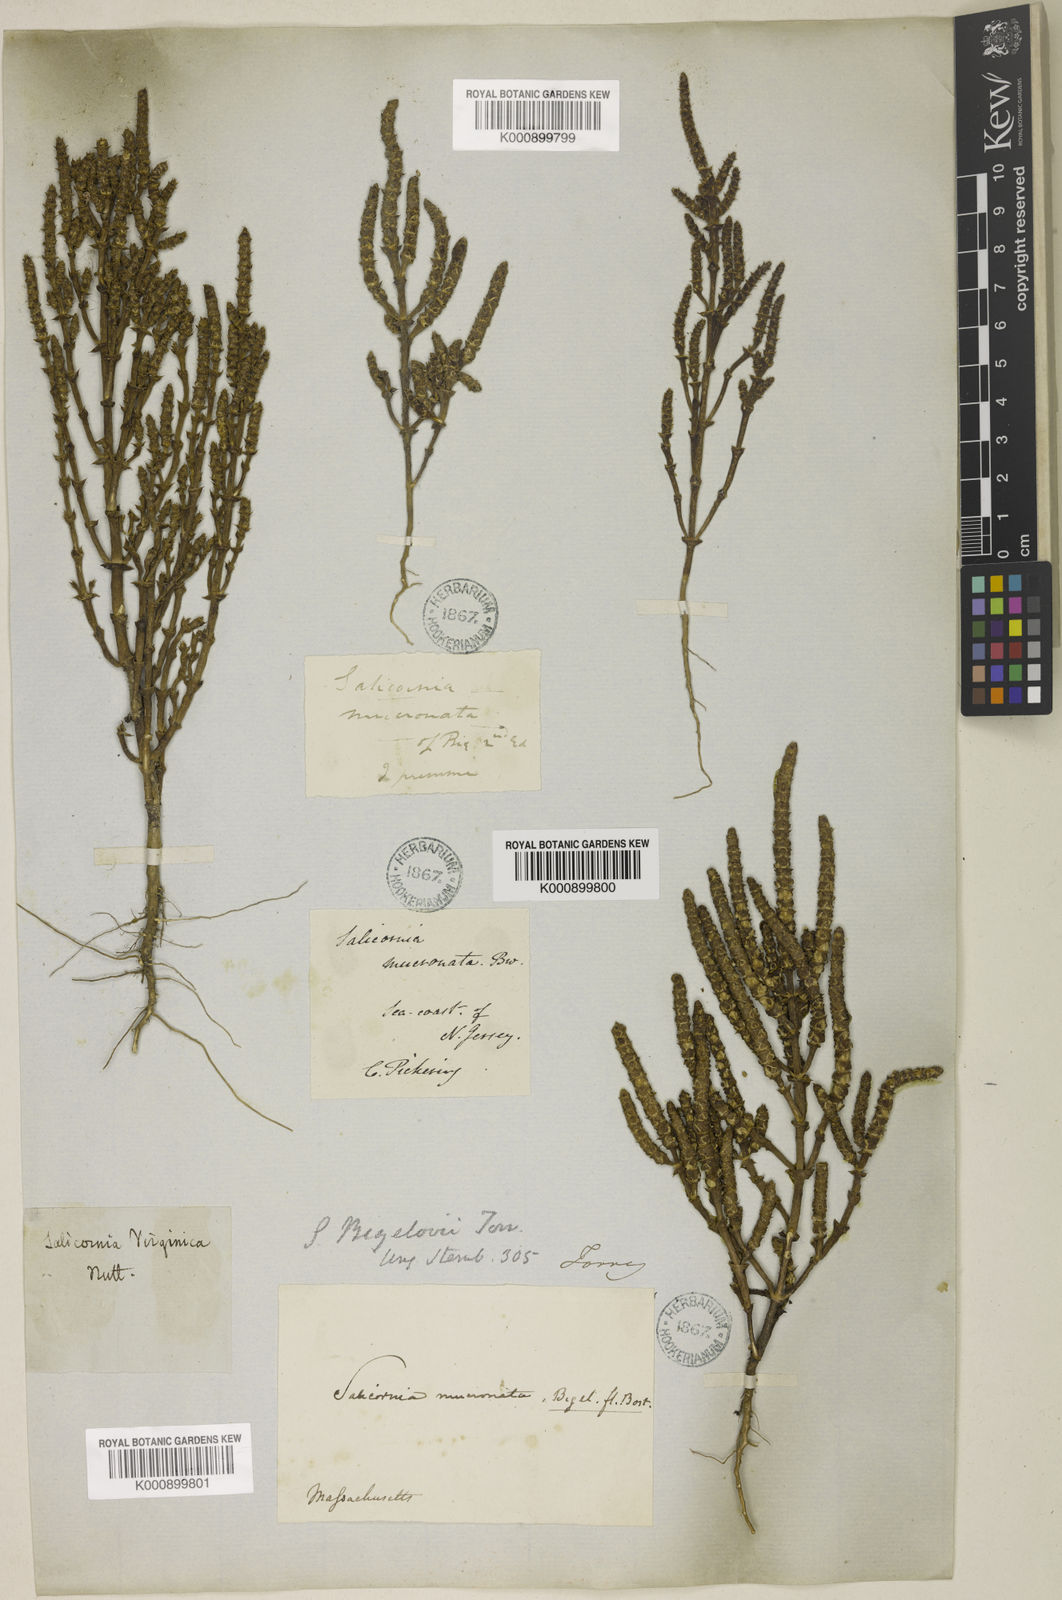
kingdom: Plantae
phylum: Tracheophyta
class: Magnoliopsida
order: Caryophyllales
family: Amaranthaceae
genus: Salicornia
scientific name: Salicornia bigelovii
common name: Dwarf glasswort
